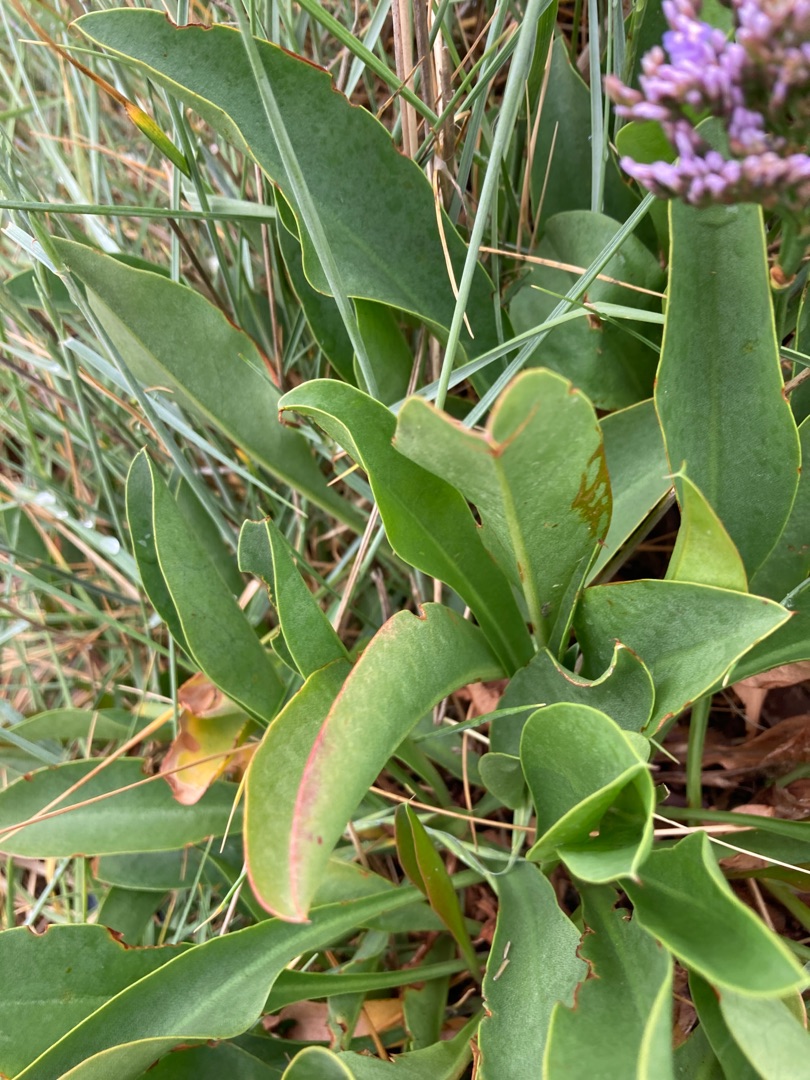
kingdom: Plantae
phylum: Tracheophyta
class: Magnoliopsida
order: Caryophyllales
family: Plumbaginaceae
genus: Limonium
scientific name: Limonium vulgare
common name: Tætblomstret hindebæger
